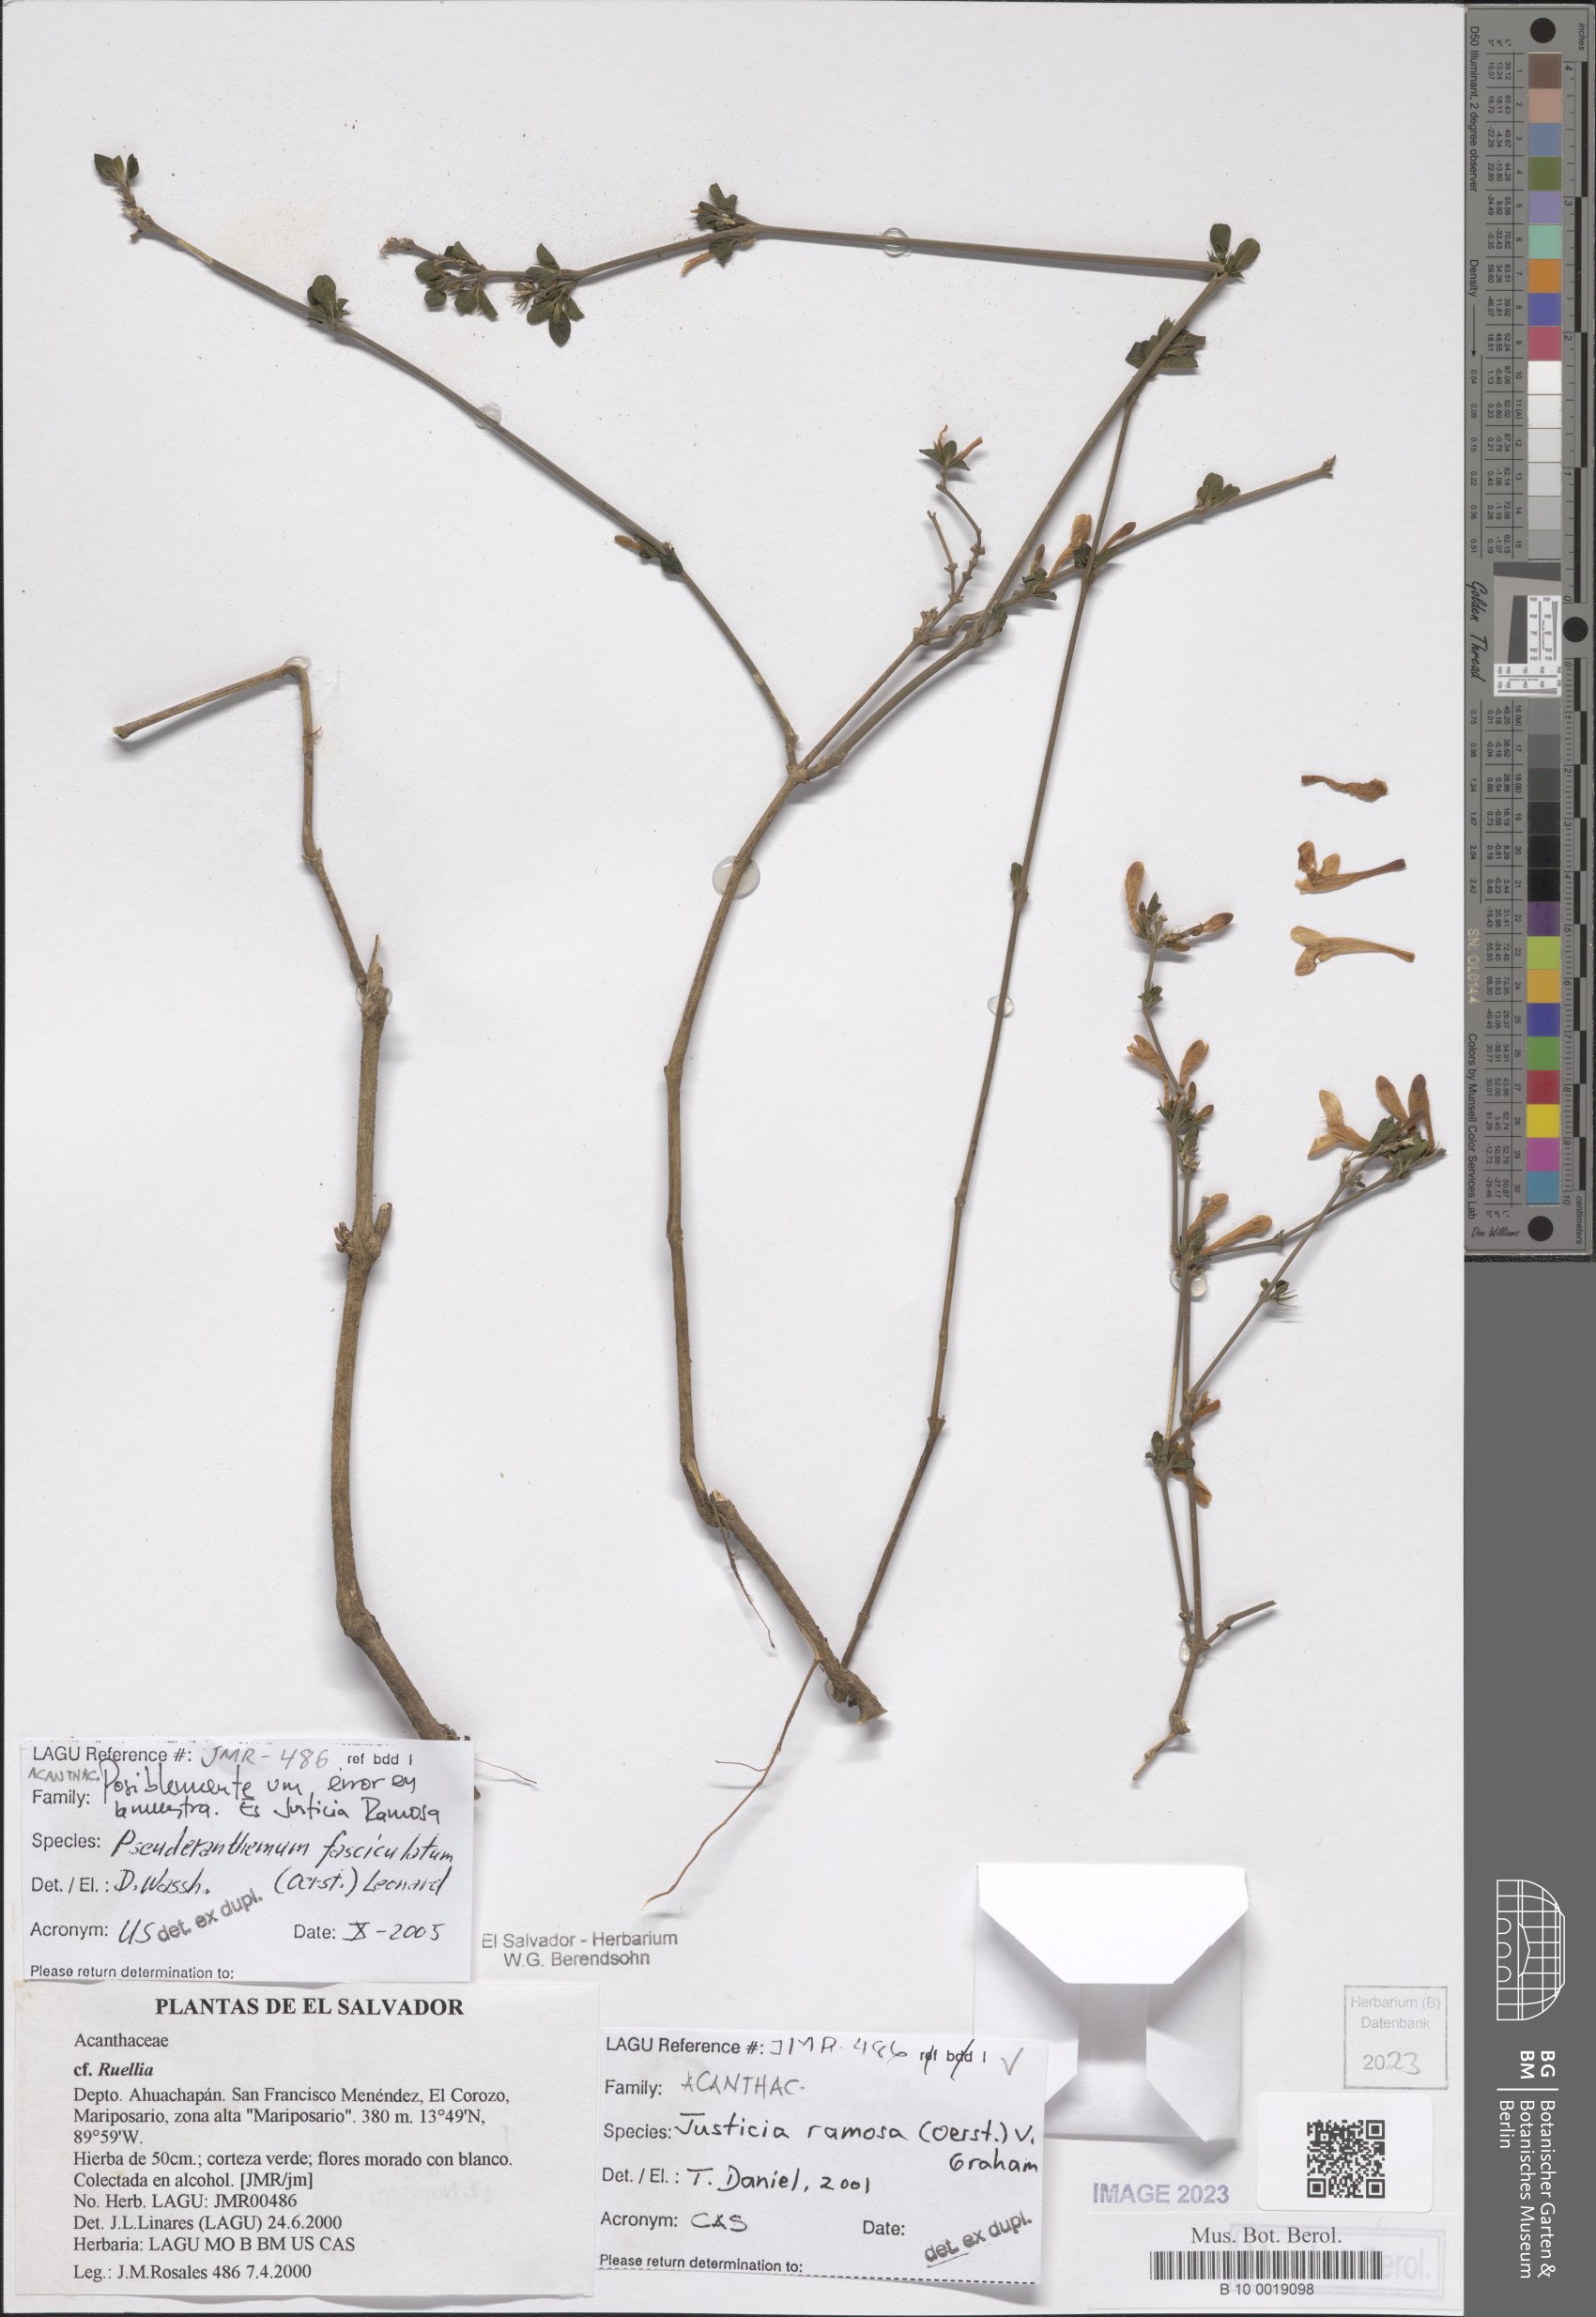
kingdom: Plantae
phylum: Tracheophyta
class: Magnoliopsida
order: Lamiales
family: Acanthaceae
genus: Justicia
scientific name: Justicia ramosa
